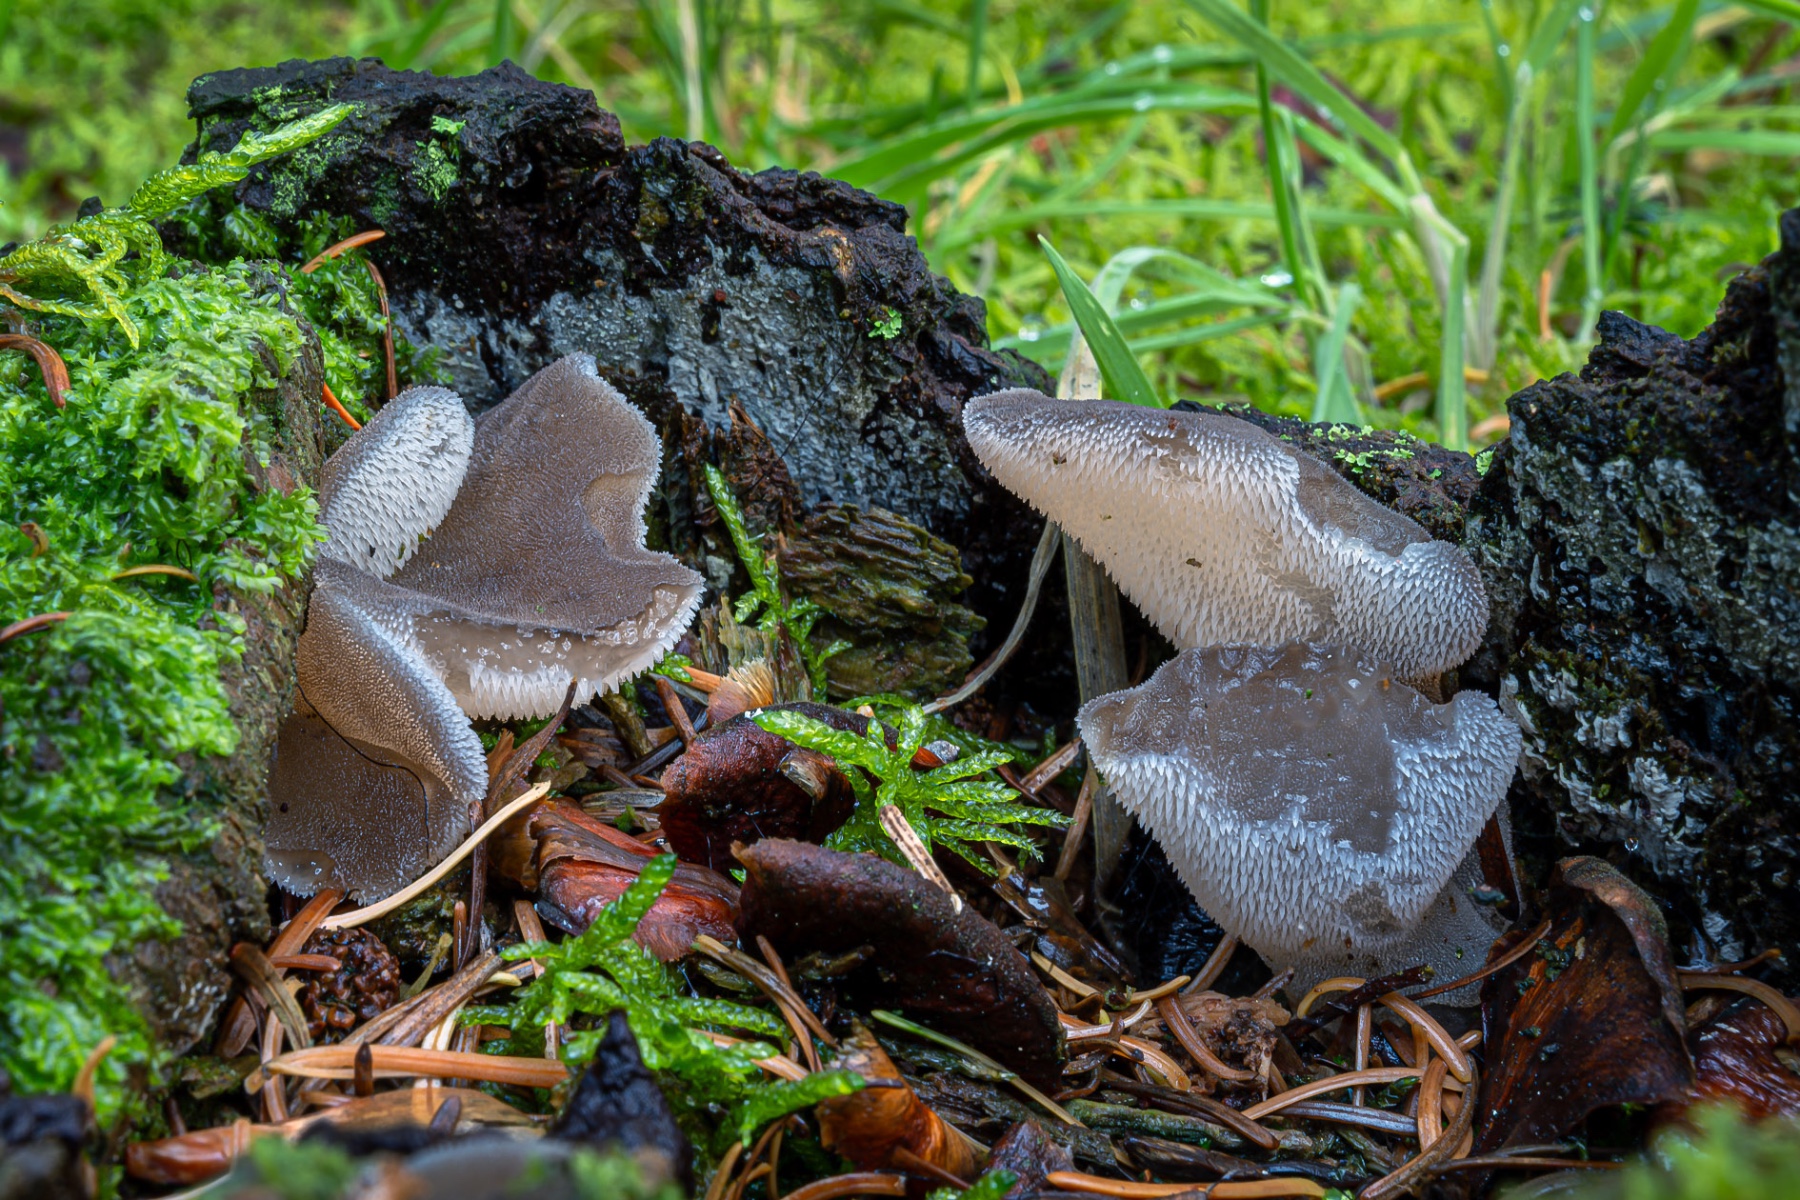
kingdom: Fungi
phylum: Basidiomycota
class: Agaricomycetes
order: Auriculariales
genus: Pseudohydnum
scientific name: Pseudohydnum gelatinosum
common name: bævretand
